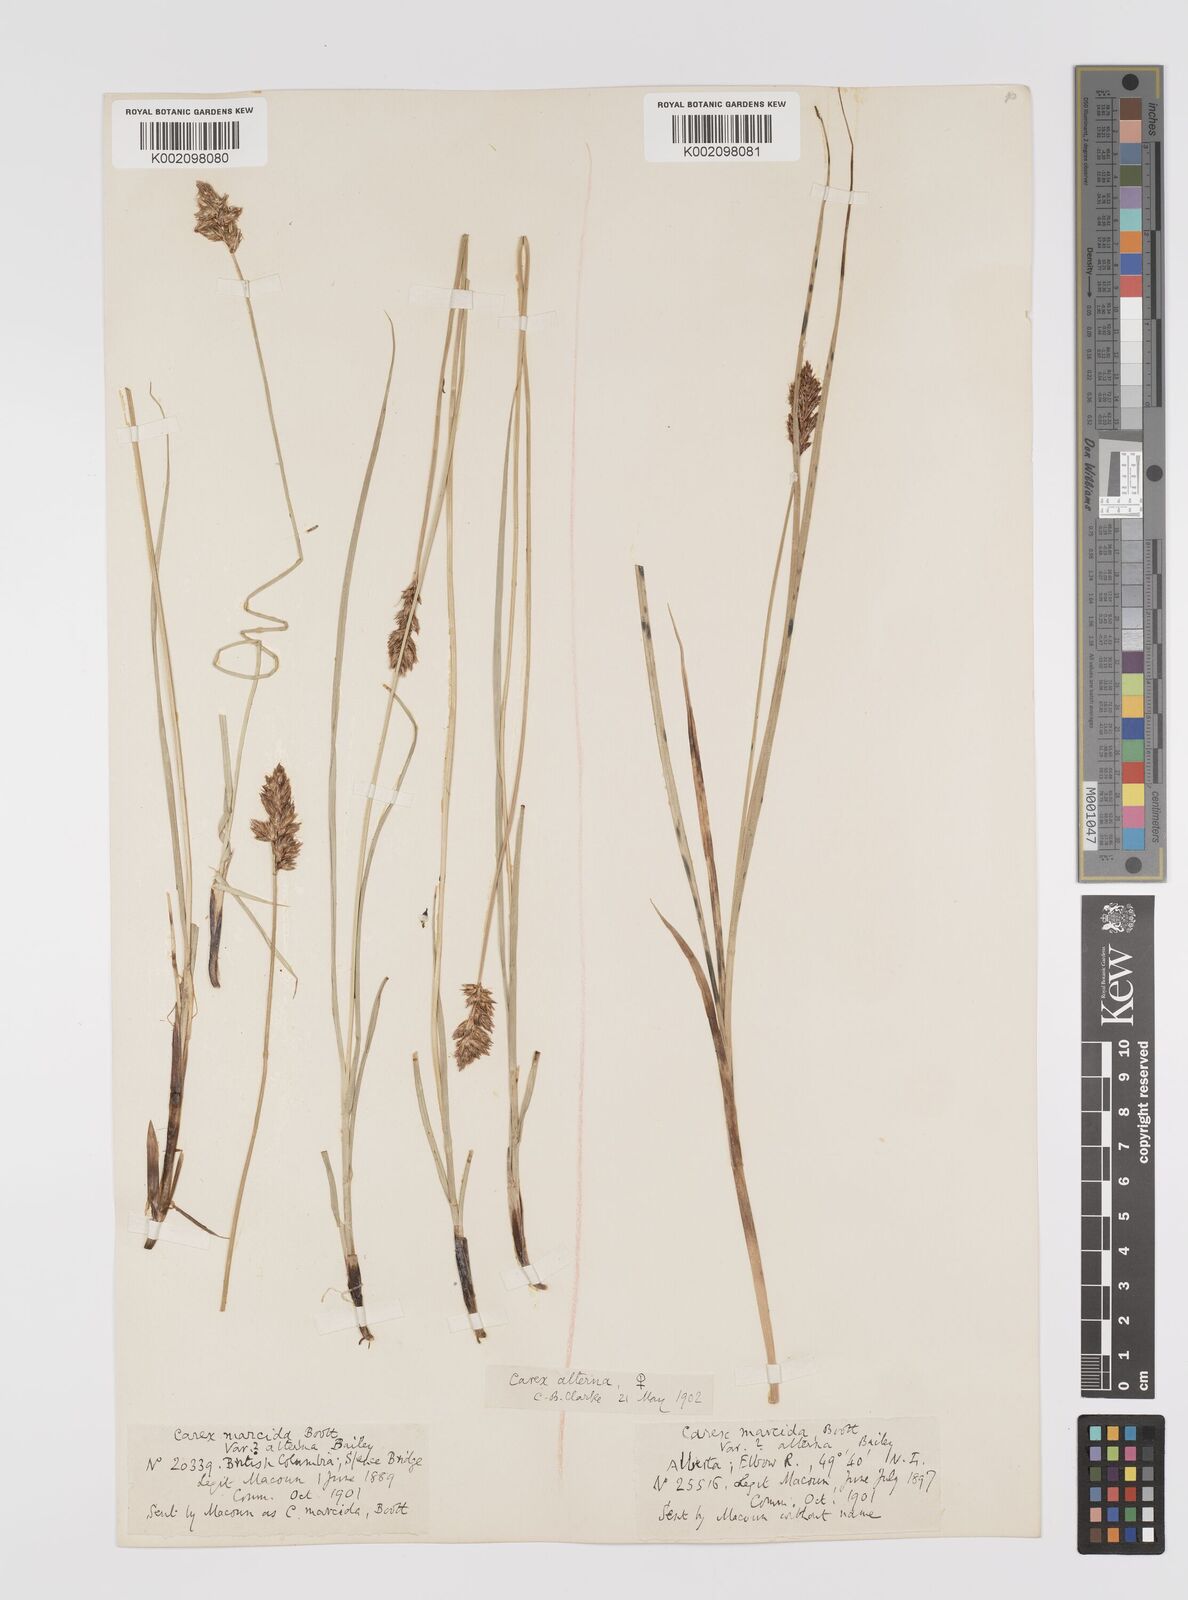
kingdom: Plantae
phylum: Tracheophyta
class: Liliopsida
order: Poales
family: Cyperaceae
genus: Carex
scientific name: Carex praegracilis
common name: Black creeper sedge
